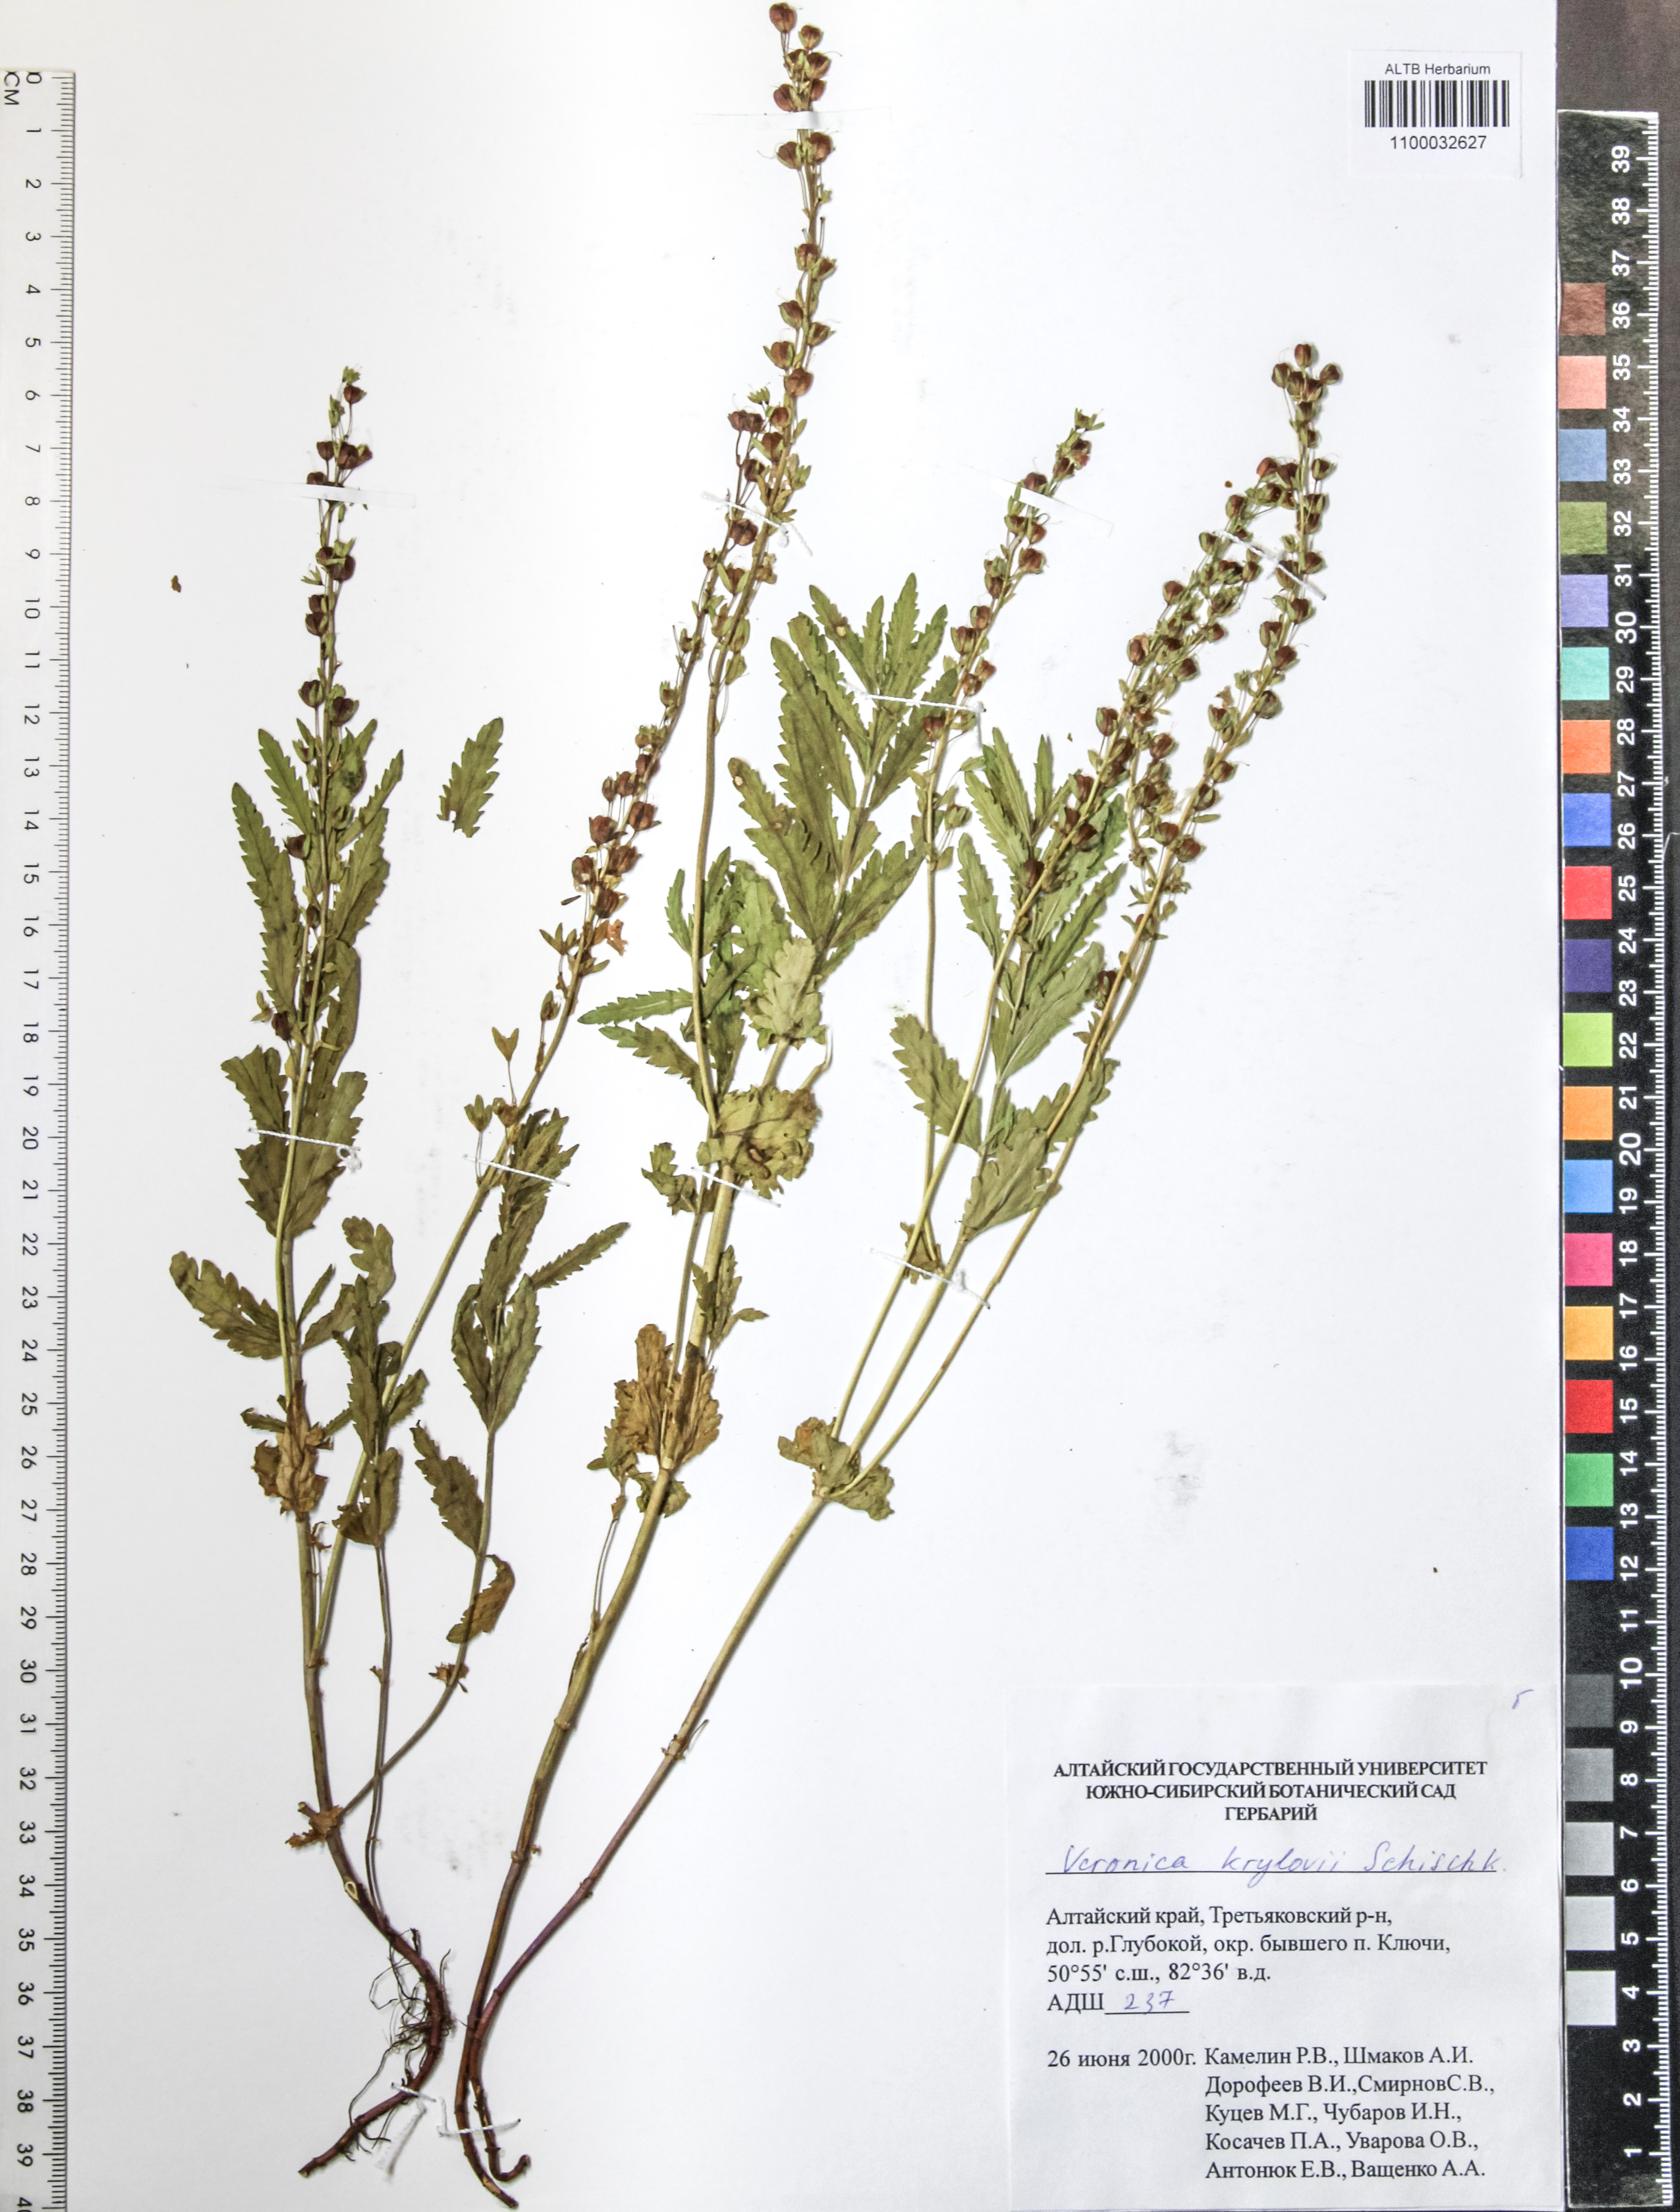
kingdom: Plantae
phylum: Tracheophyta
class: Magnoliopsida
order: Lamiales
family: Plantaginaceae
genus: Veronica
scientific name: Veronica krylovii
